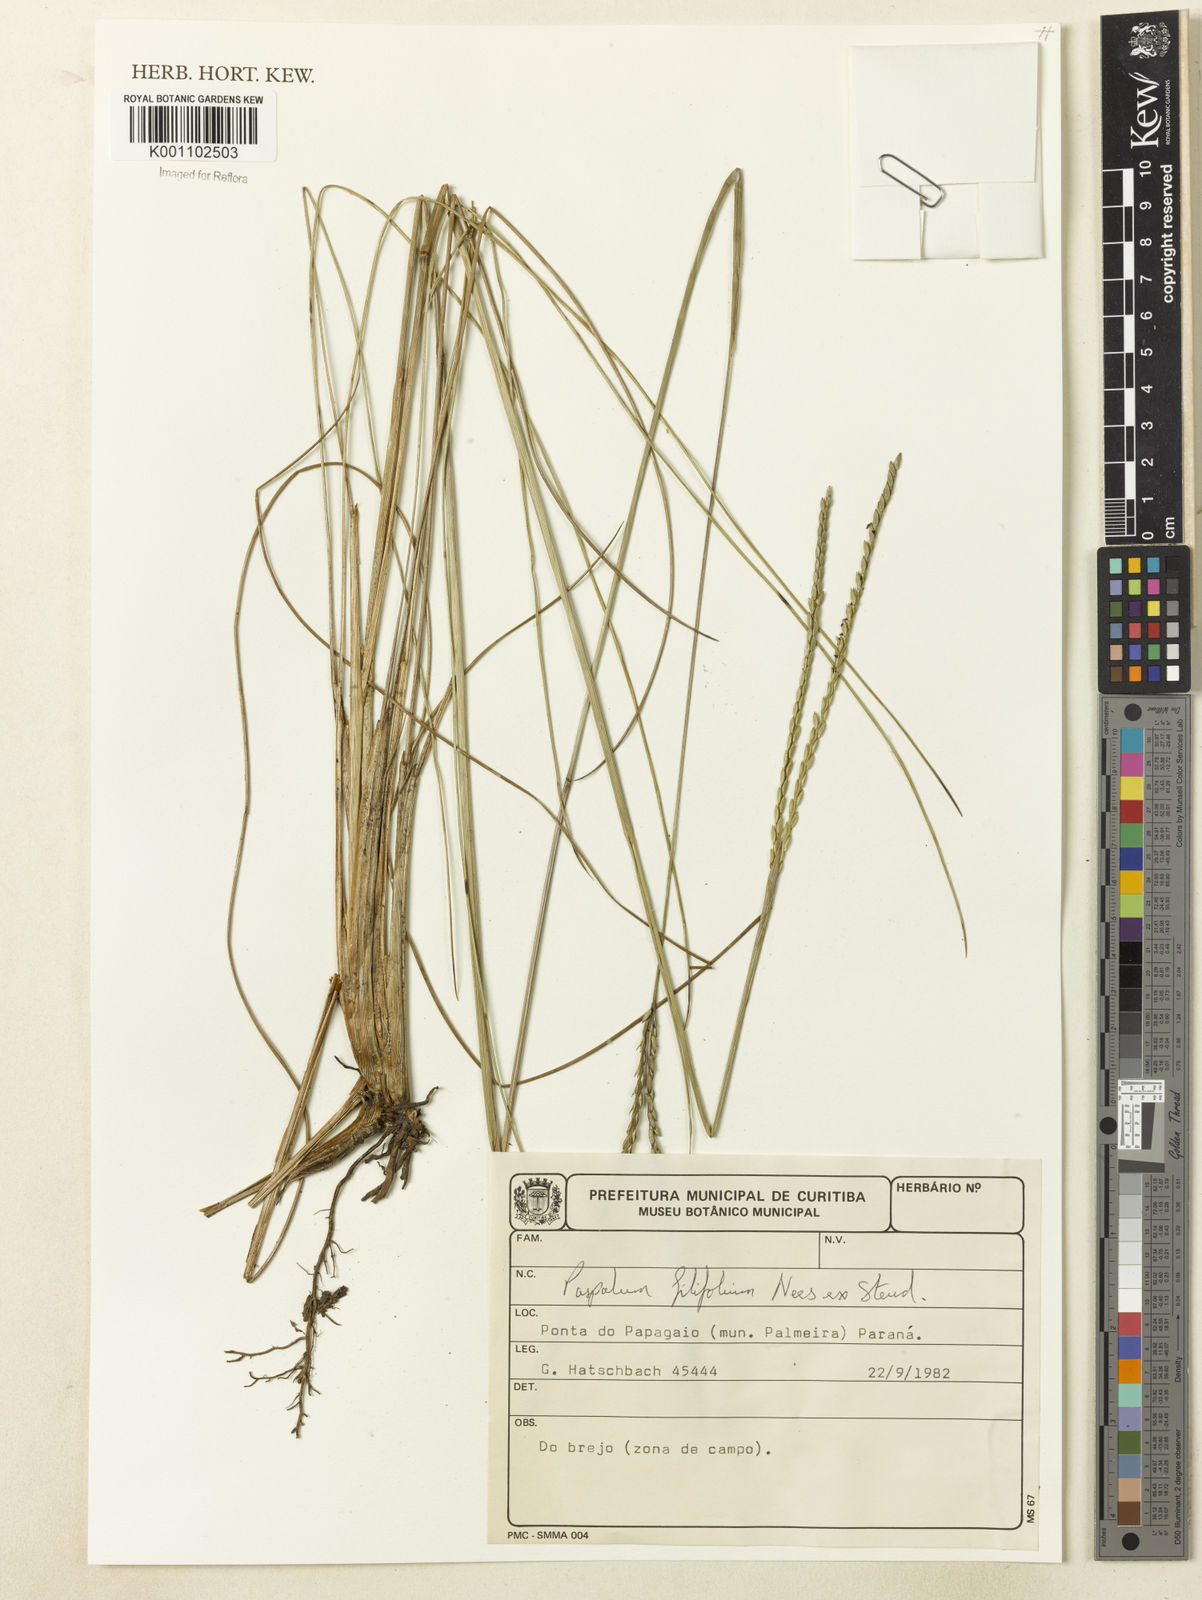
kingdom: Plantae
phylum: Tracheophyta
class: Liliopsida
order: Poales
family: Poaceae
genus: Paspalum
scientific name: Paspalum filifolium
